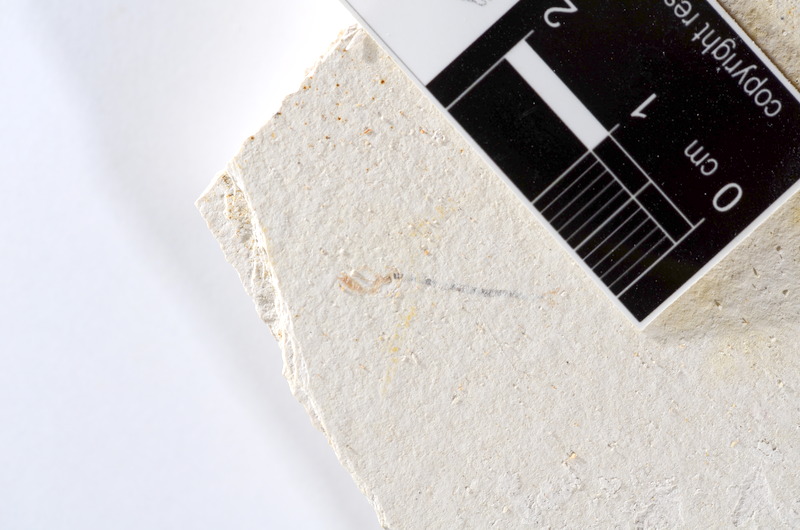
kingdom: Animalia
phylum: Chordata
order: Salmoniformes
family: Orthogonikleithridae
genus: Orthogonikleithrus
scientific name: Orthogonikleithrus hoelli
